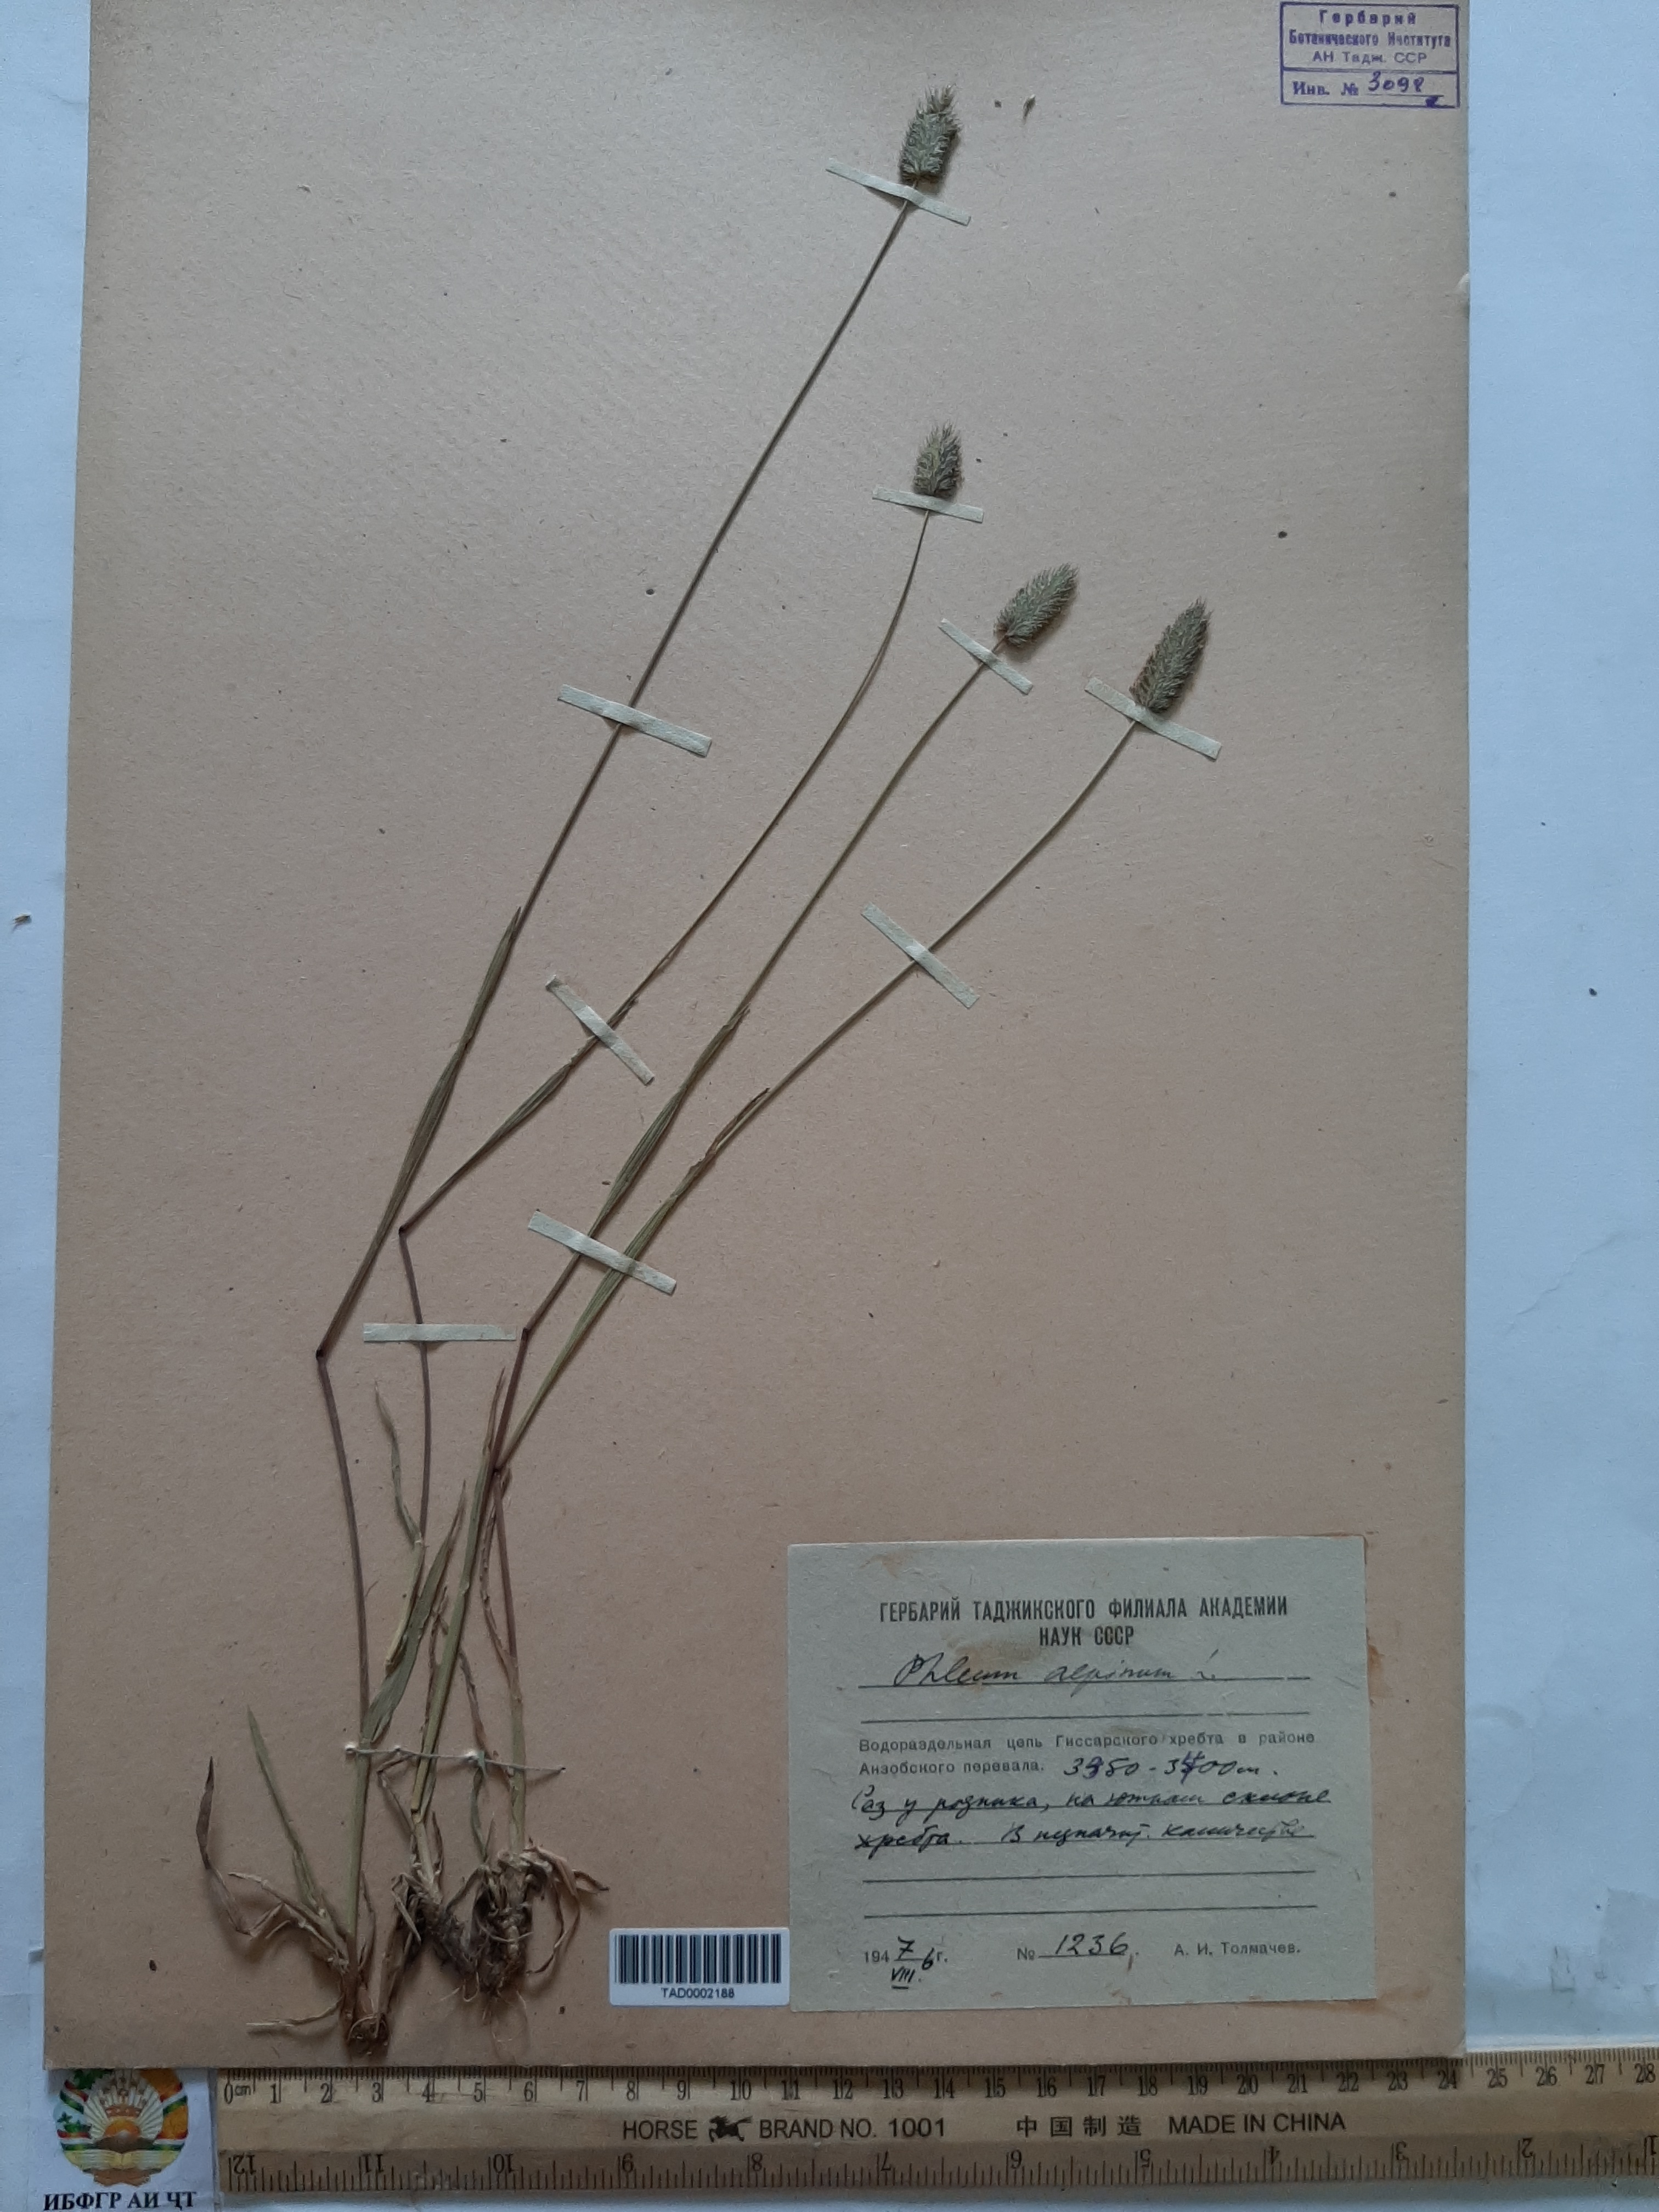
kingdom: Plantae
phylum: Tracheophyta
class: Liliopsida
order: Poales
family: Poaceae
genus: Phleum
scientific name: Phleum alpinum
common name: Alpine cat's-tail
